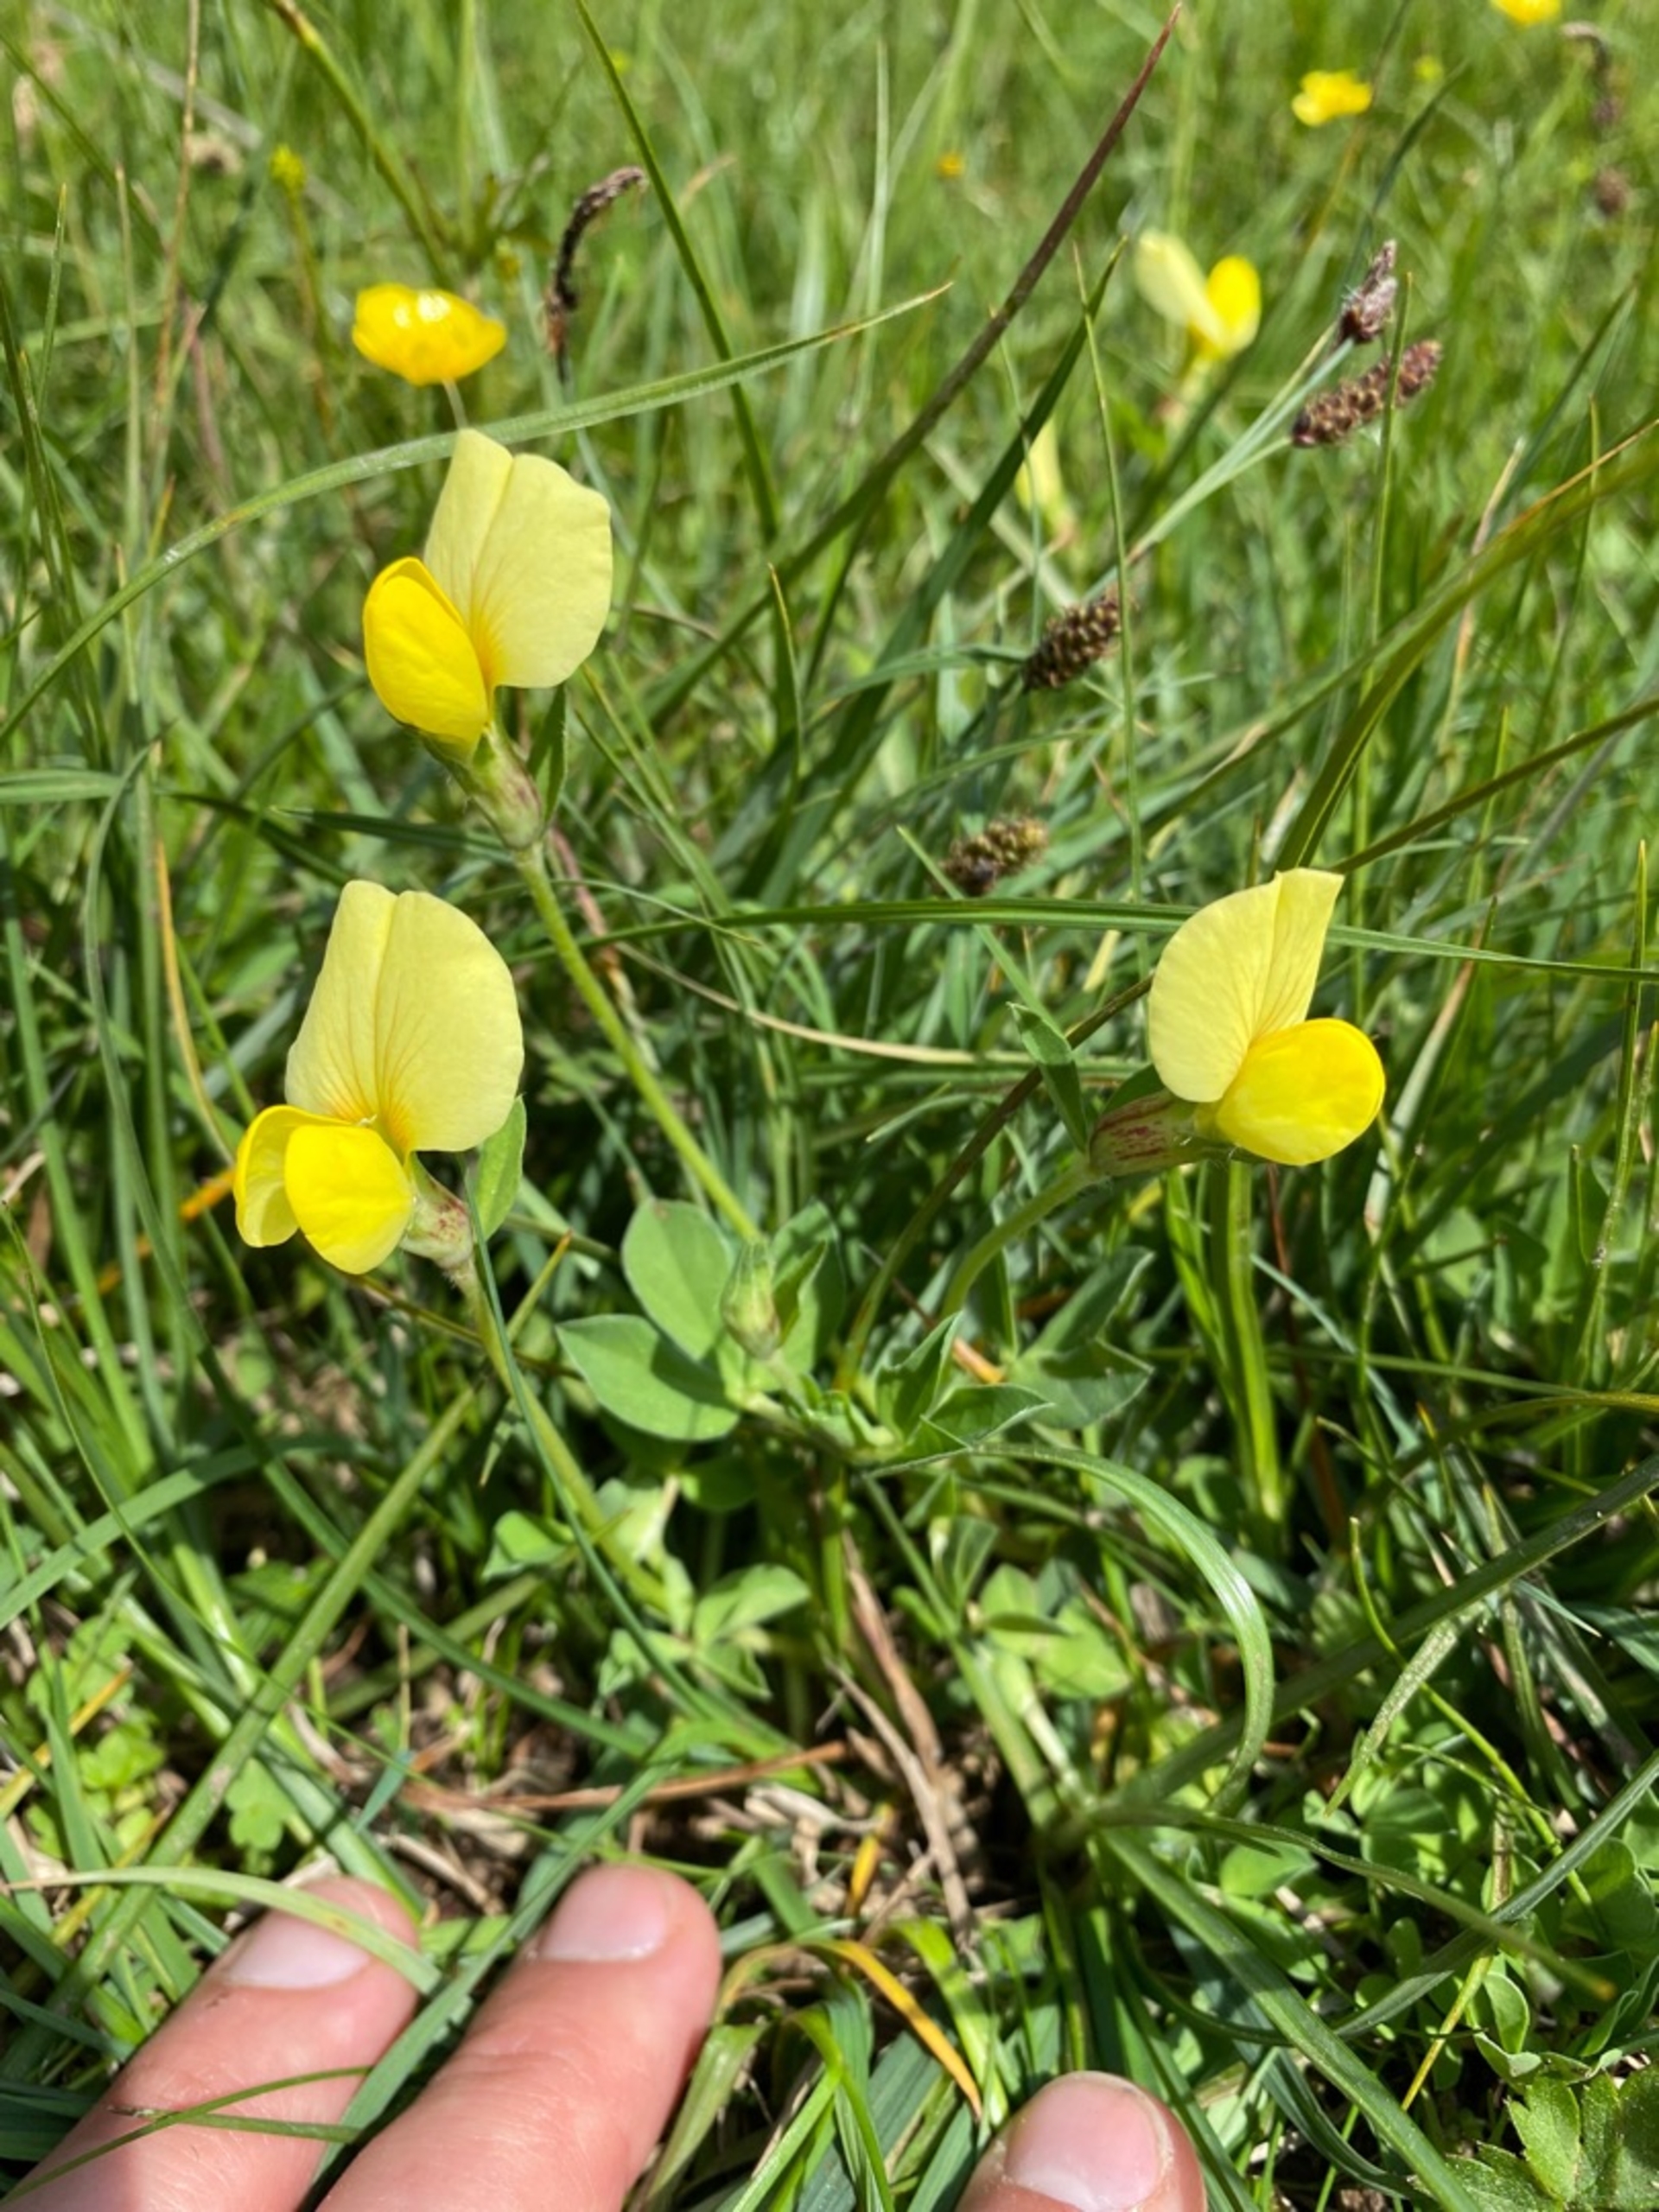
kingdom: Plantae
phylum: Tracheophyta
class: Magnoliopsida
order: Fabales
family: Fabaceae
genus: Lotus
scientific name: Lotus maritimus
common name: Kantbælg
